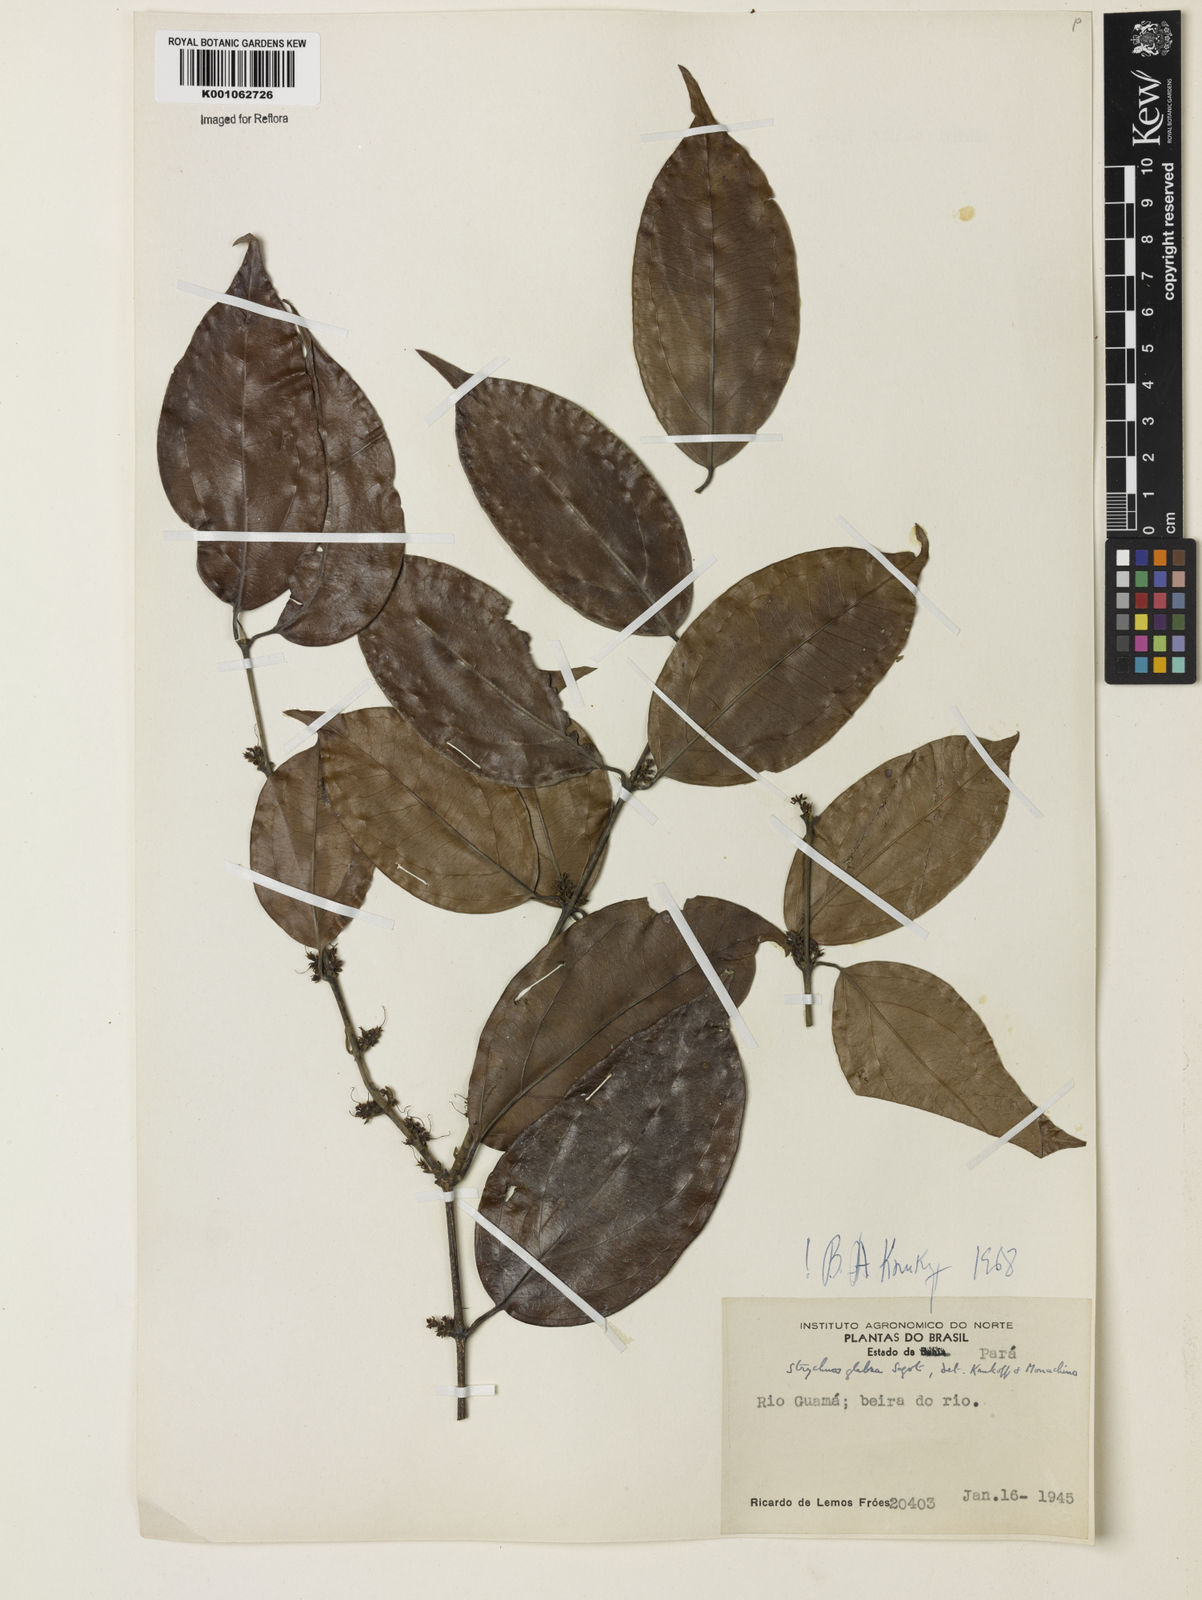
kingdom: Plantae
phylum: Tracheophyta
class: Magnoliopsida
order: Gentianales
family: Loganiaceae
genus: Strychnos
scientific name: Strychnos glabra
